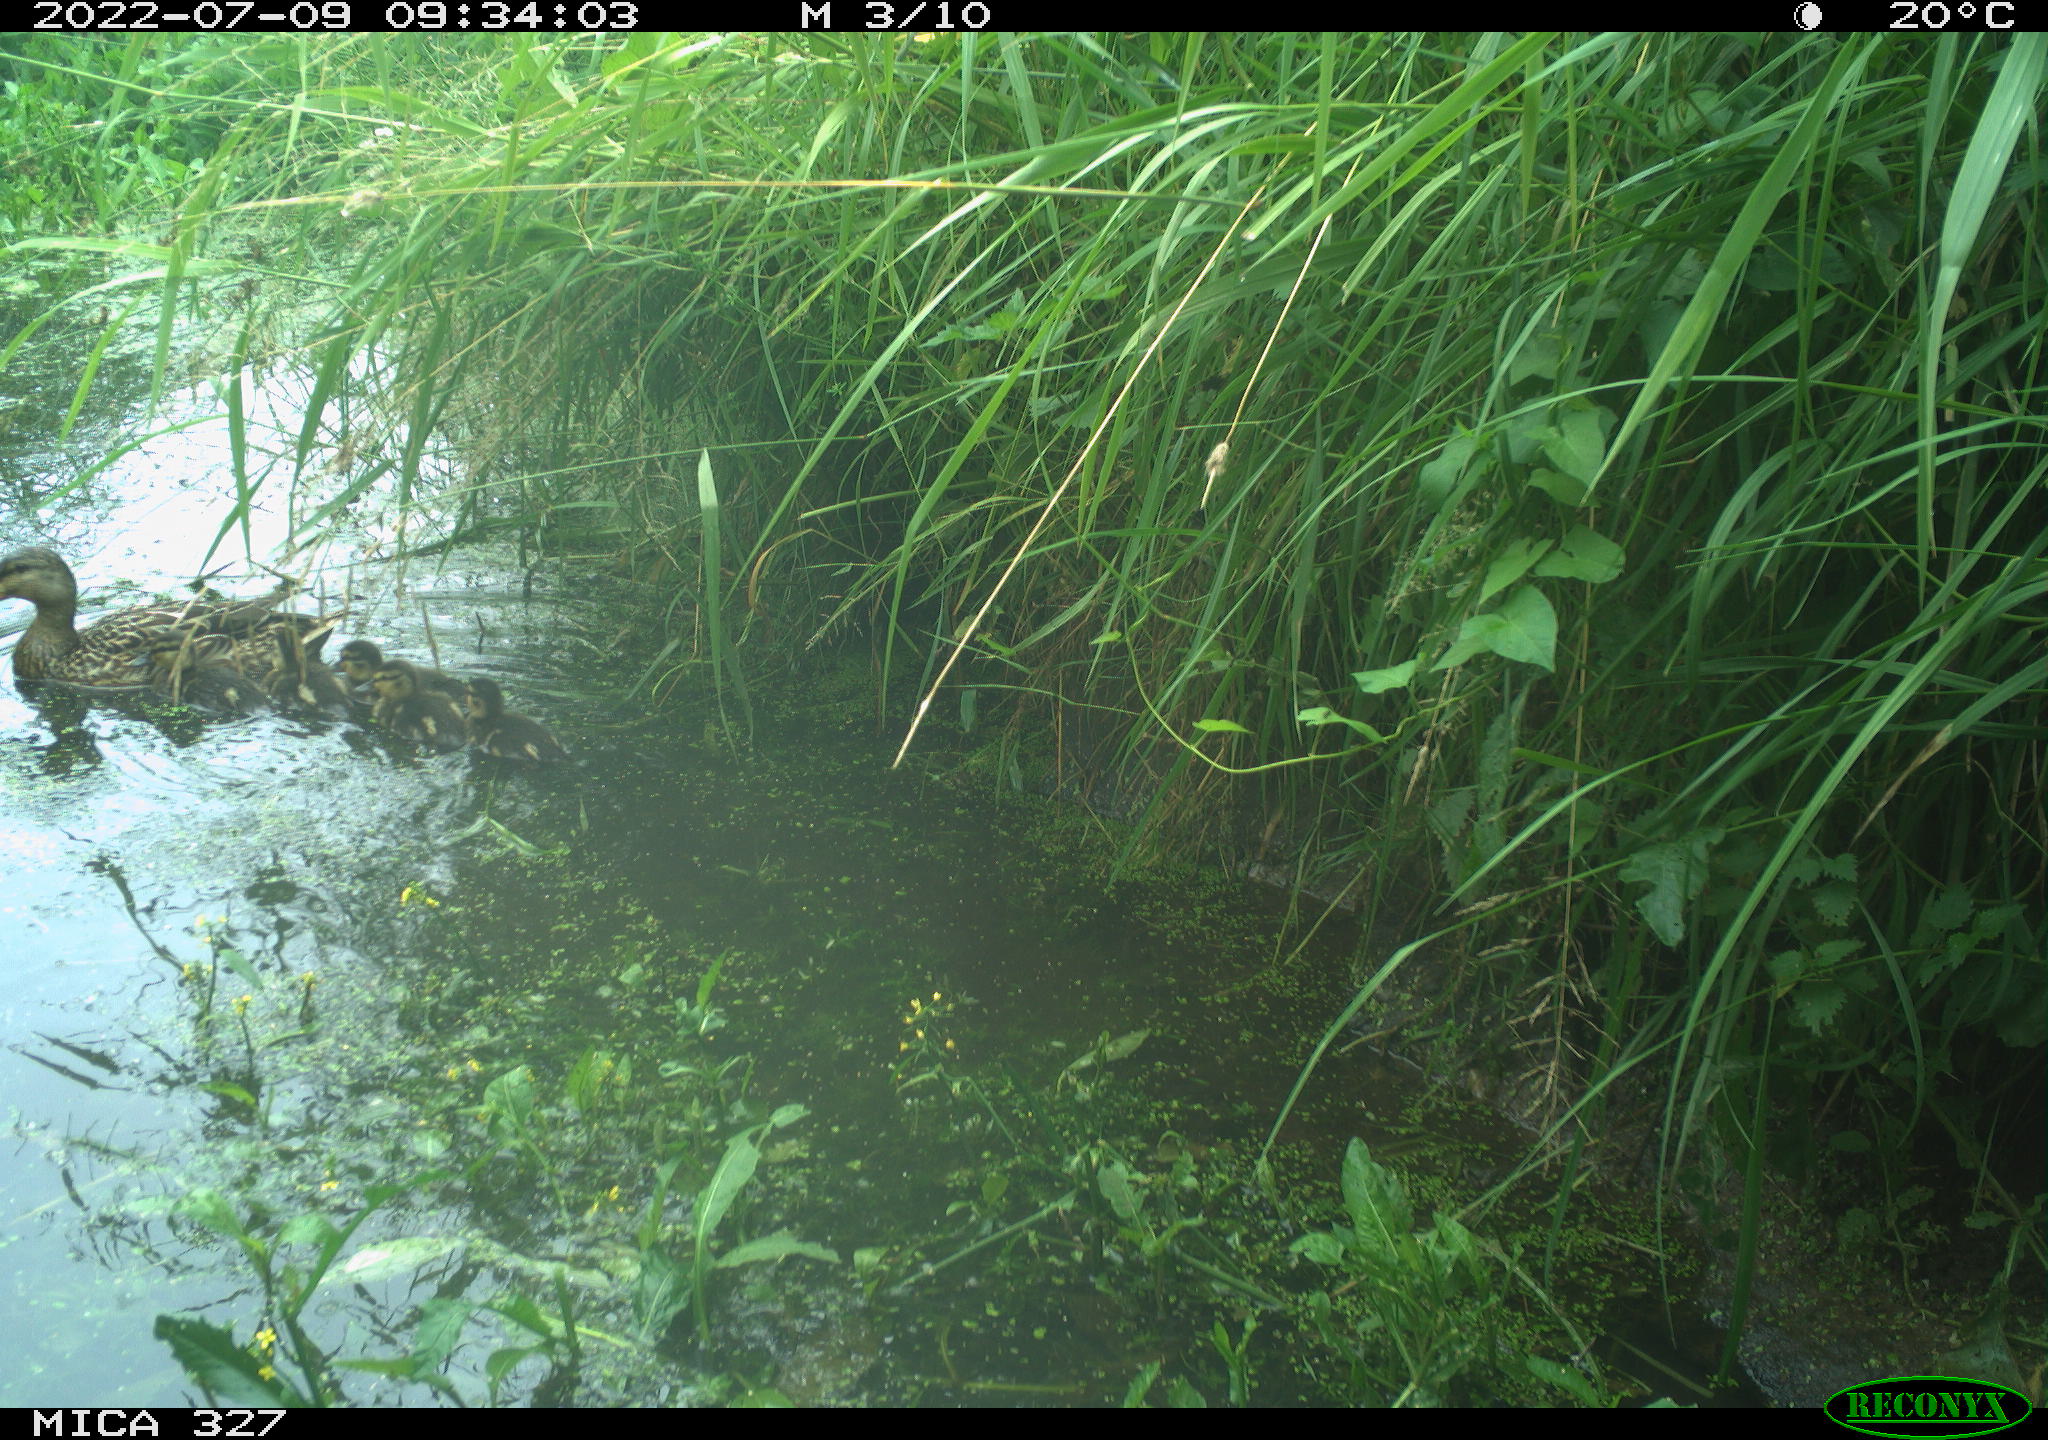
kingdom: Animalia
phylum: Chordata
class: Aves
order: Anseriformes
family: Anatidae
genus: Anas
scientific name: Anas
